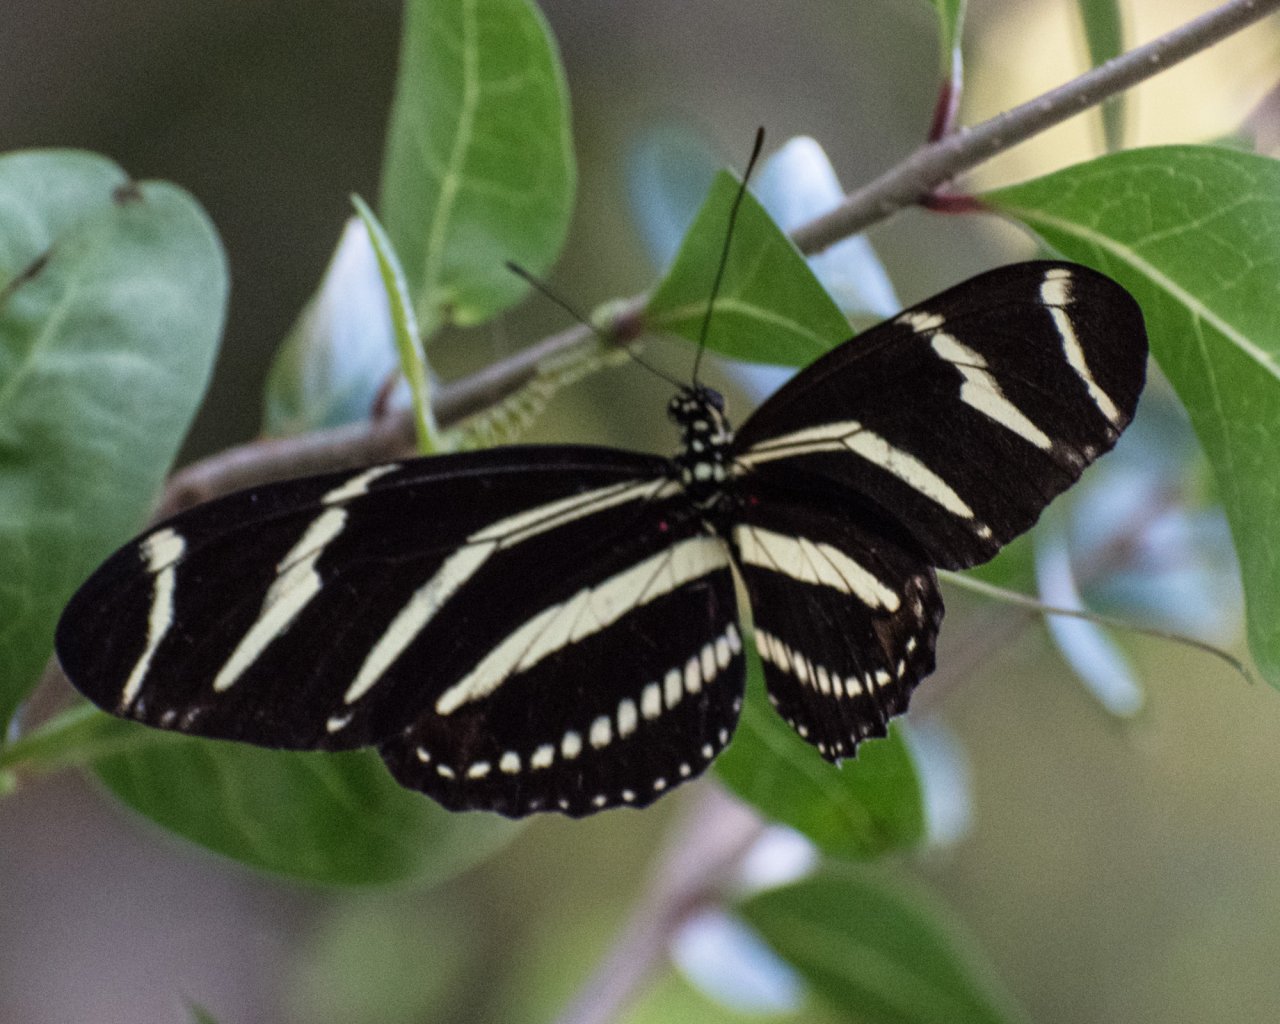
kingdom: Animalia
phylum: Arthropoda
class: Insecta
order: Lepidoptera
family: Nymphalidae
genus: Heliconius
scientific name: Heliconius charithonia
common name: Zebra Longwing
